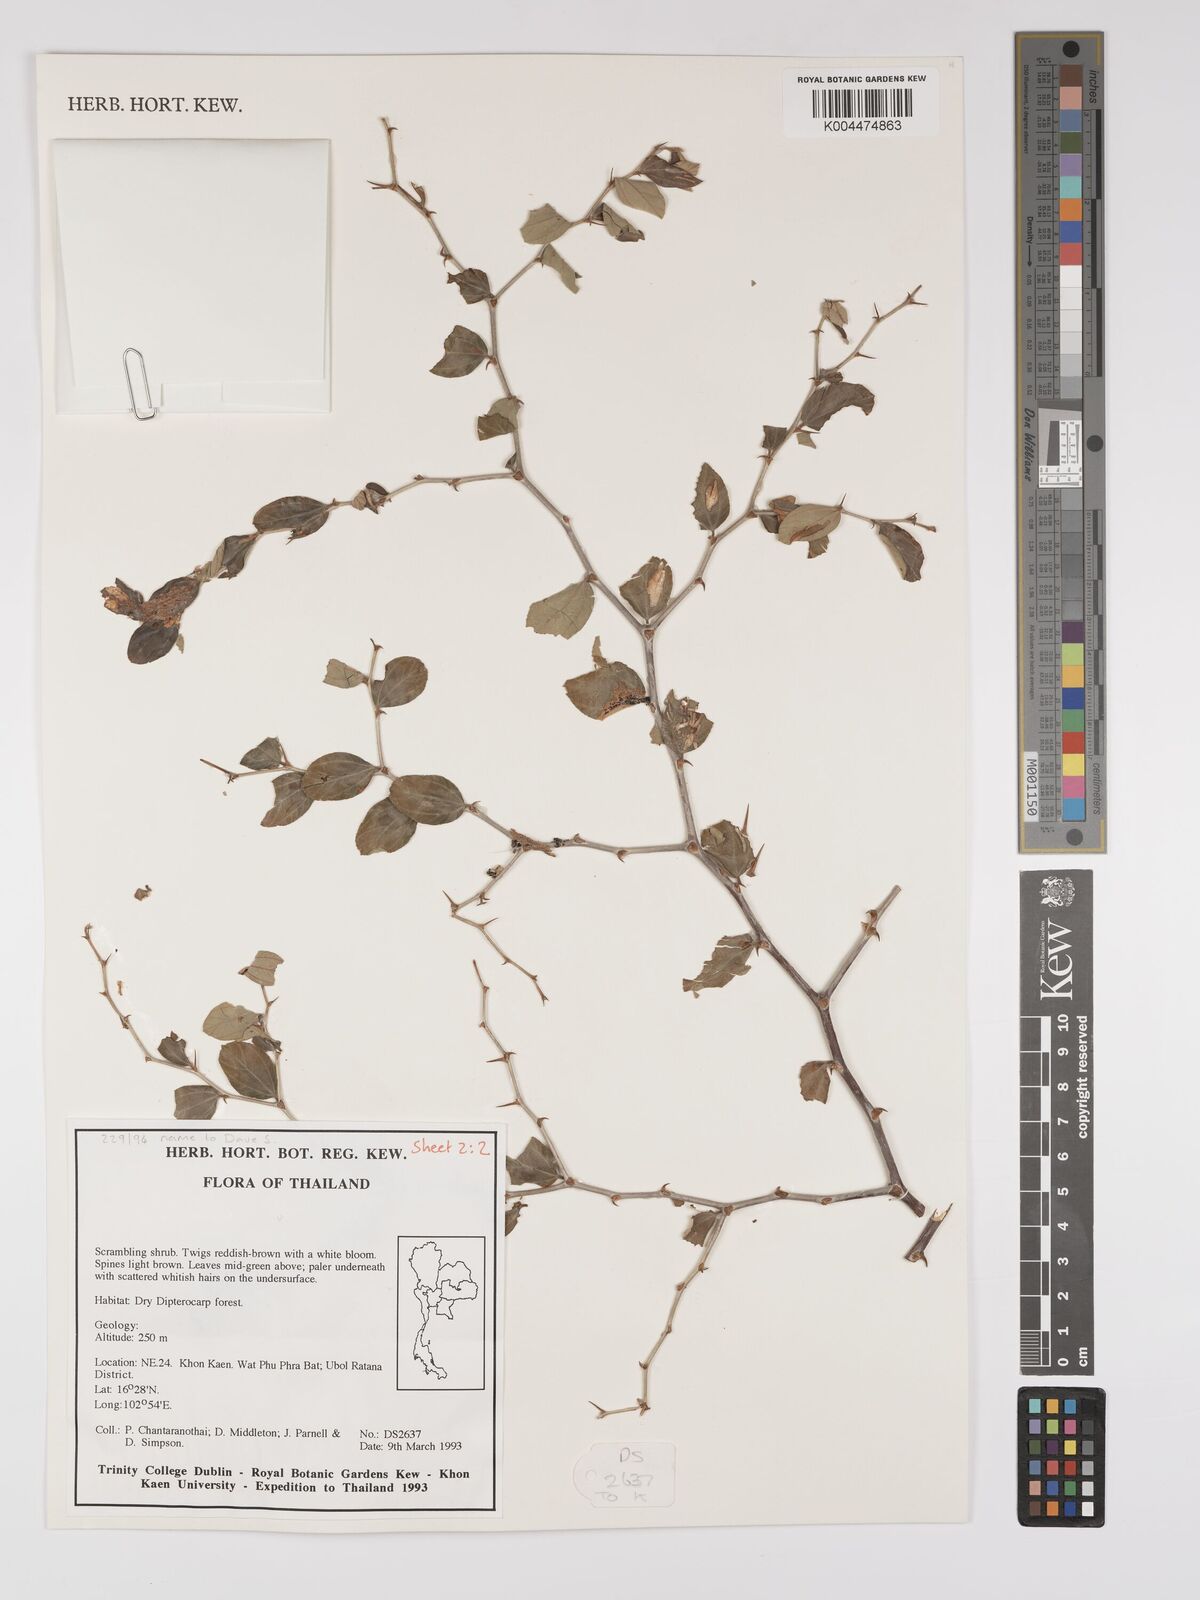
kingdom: Plantae
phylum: Tracheophyta
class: Magnoliopsida
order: Rosales
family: Rhamnaceae
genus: Ziziphus
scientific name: Ziziphus
